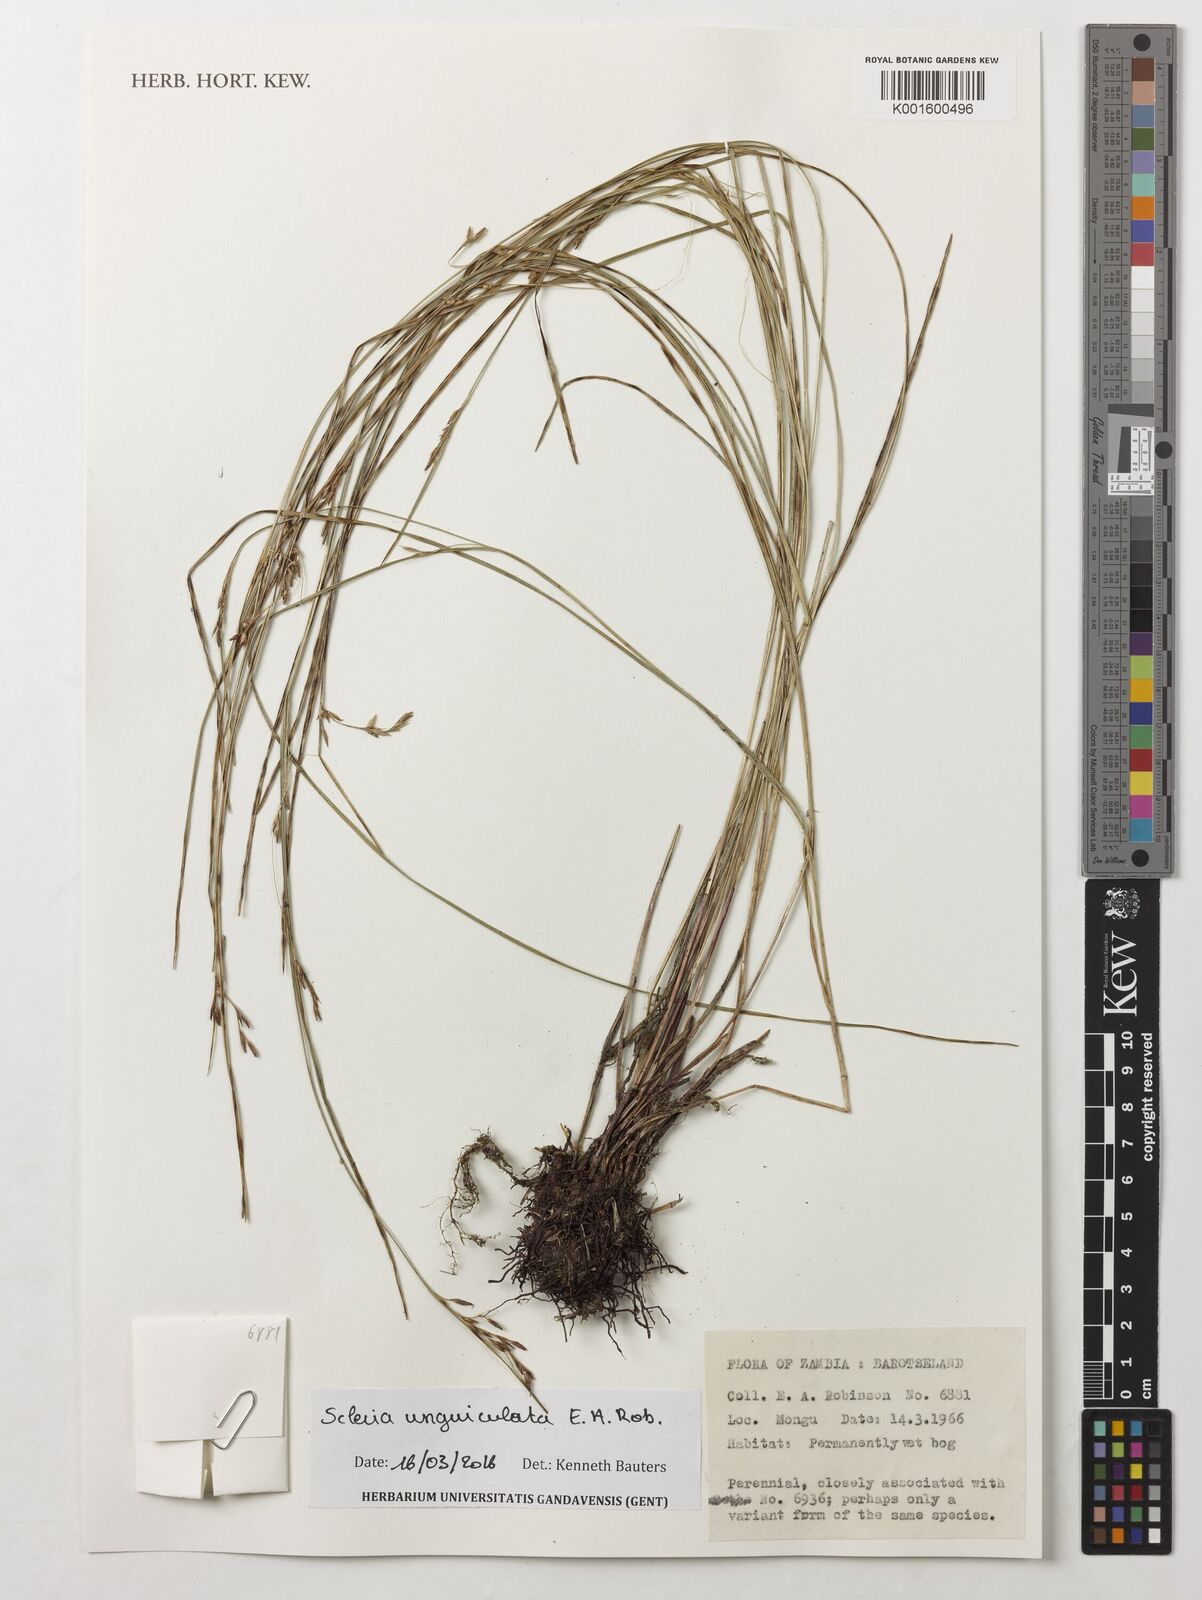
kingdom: Plantae
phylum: Tracheophyta
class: Liliopsida
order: Poales
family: Cyperaceae
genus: Scleria
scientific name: Scleria unguiculata
